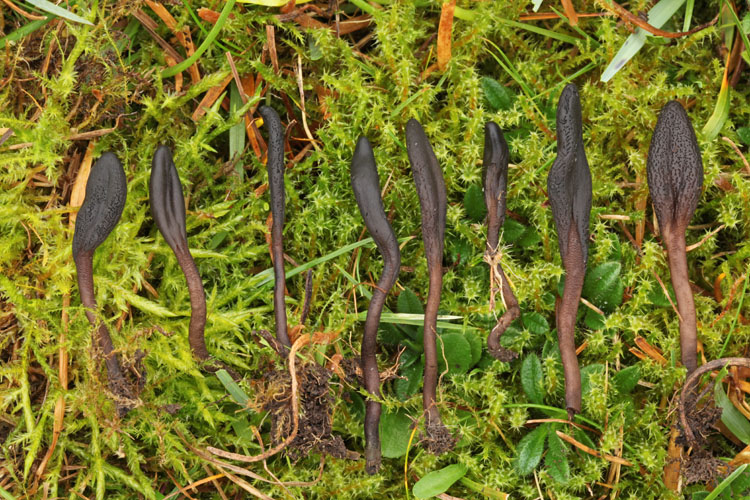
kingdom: Fungi
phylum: Ascomycota
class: Geoglossomycetes
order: Geoglossales
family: Geoglossaceae
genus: Geoglossum
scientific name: Geoglossum fallax
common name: småskællet jordtunge
